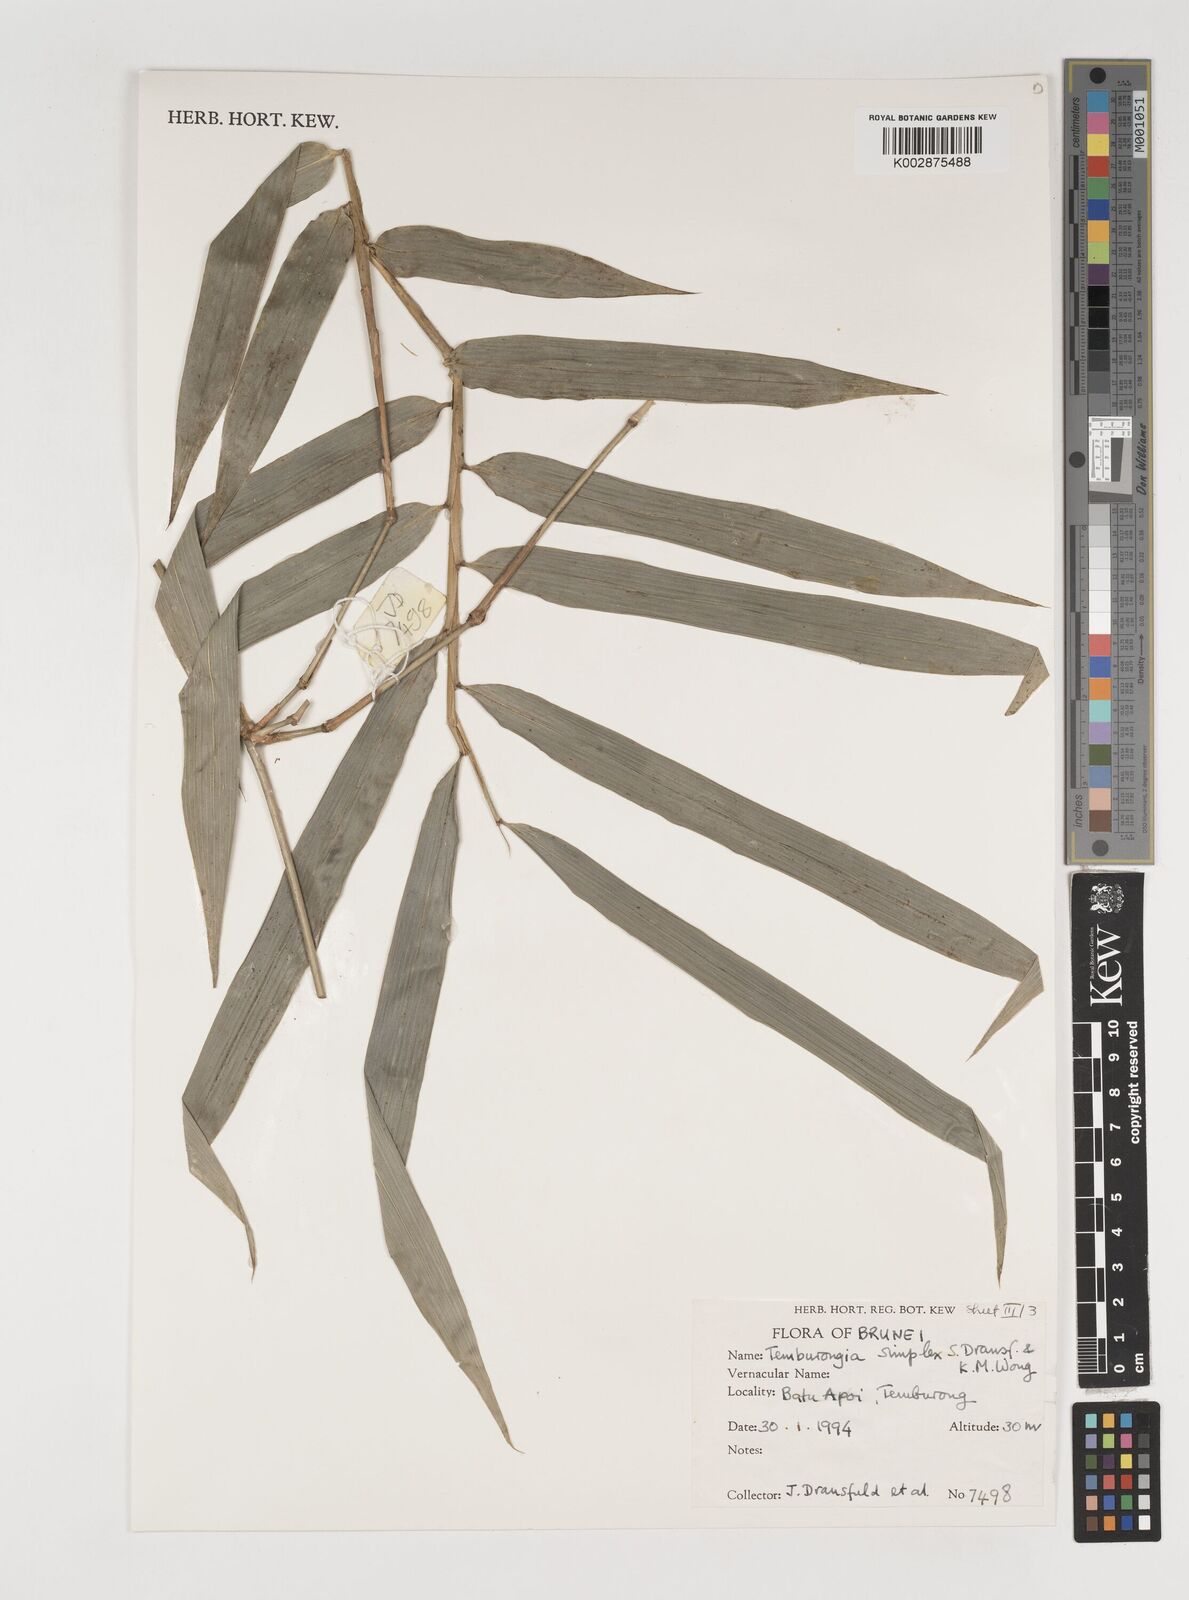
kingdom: Plantae
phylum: Tracheophyta
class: Liliopsida
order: Poales
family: Poaceae
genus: Temburongia
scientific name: Temburongia
